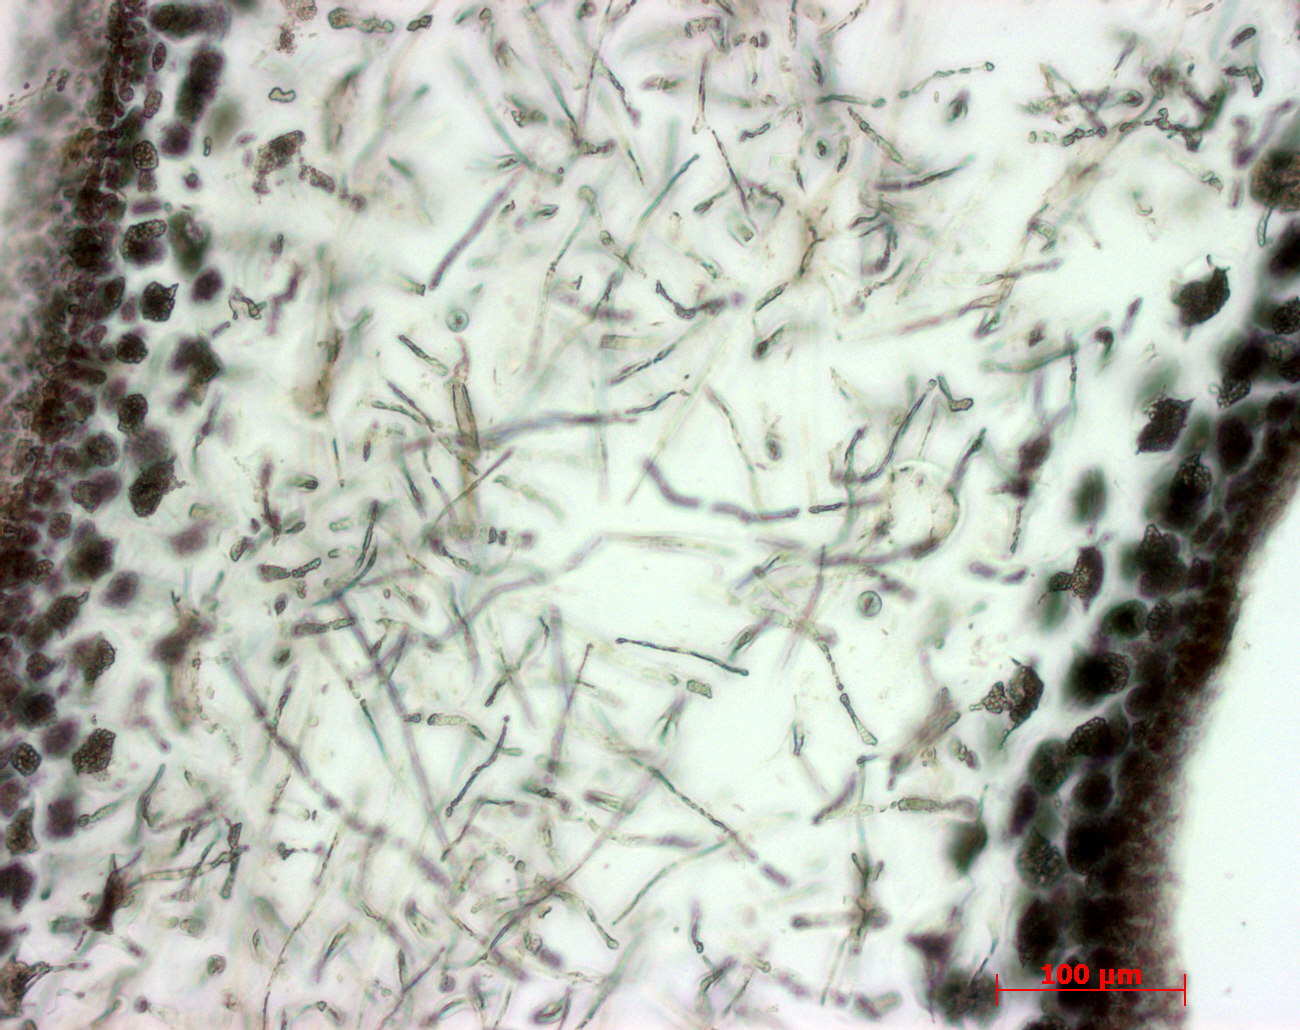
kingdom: Plantae
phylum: Rhodophyta
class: Florideophyceae
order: Gigartinales
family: Kallymeniaceae
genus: Psaromenia
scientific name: Psaromenia berggrenii
